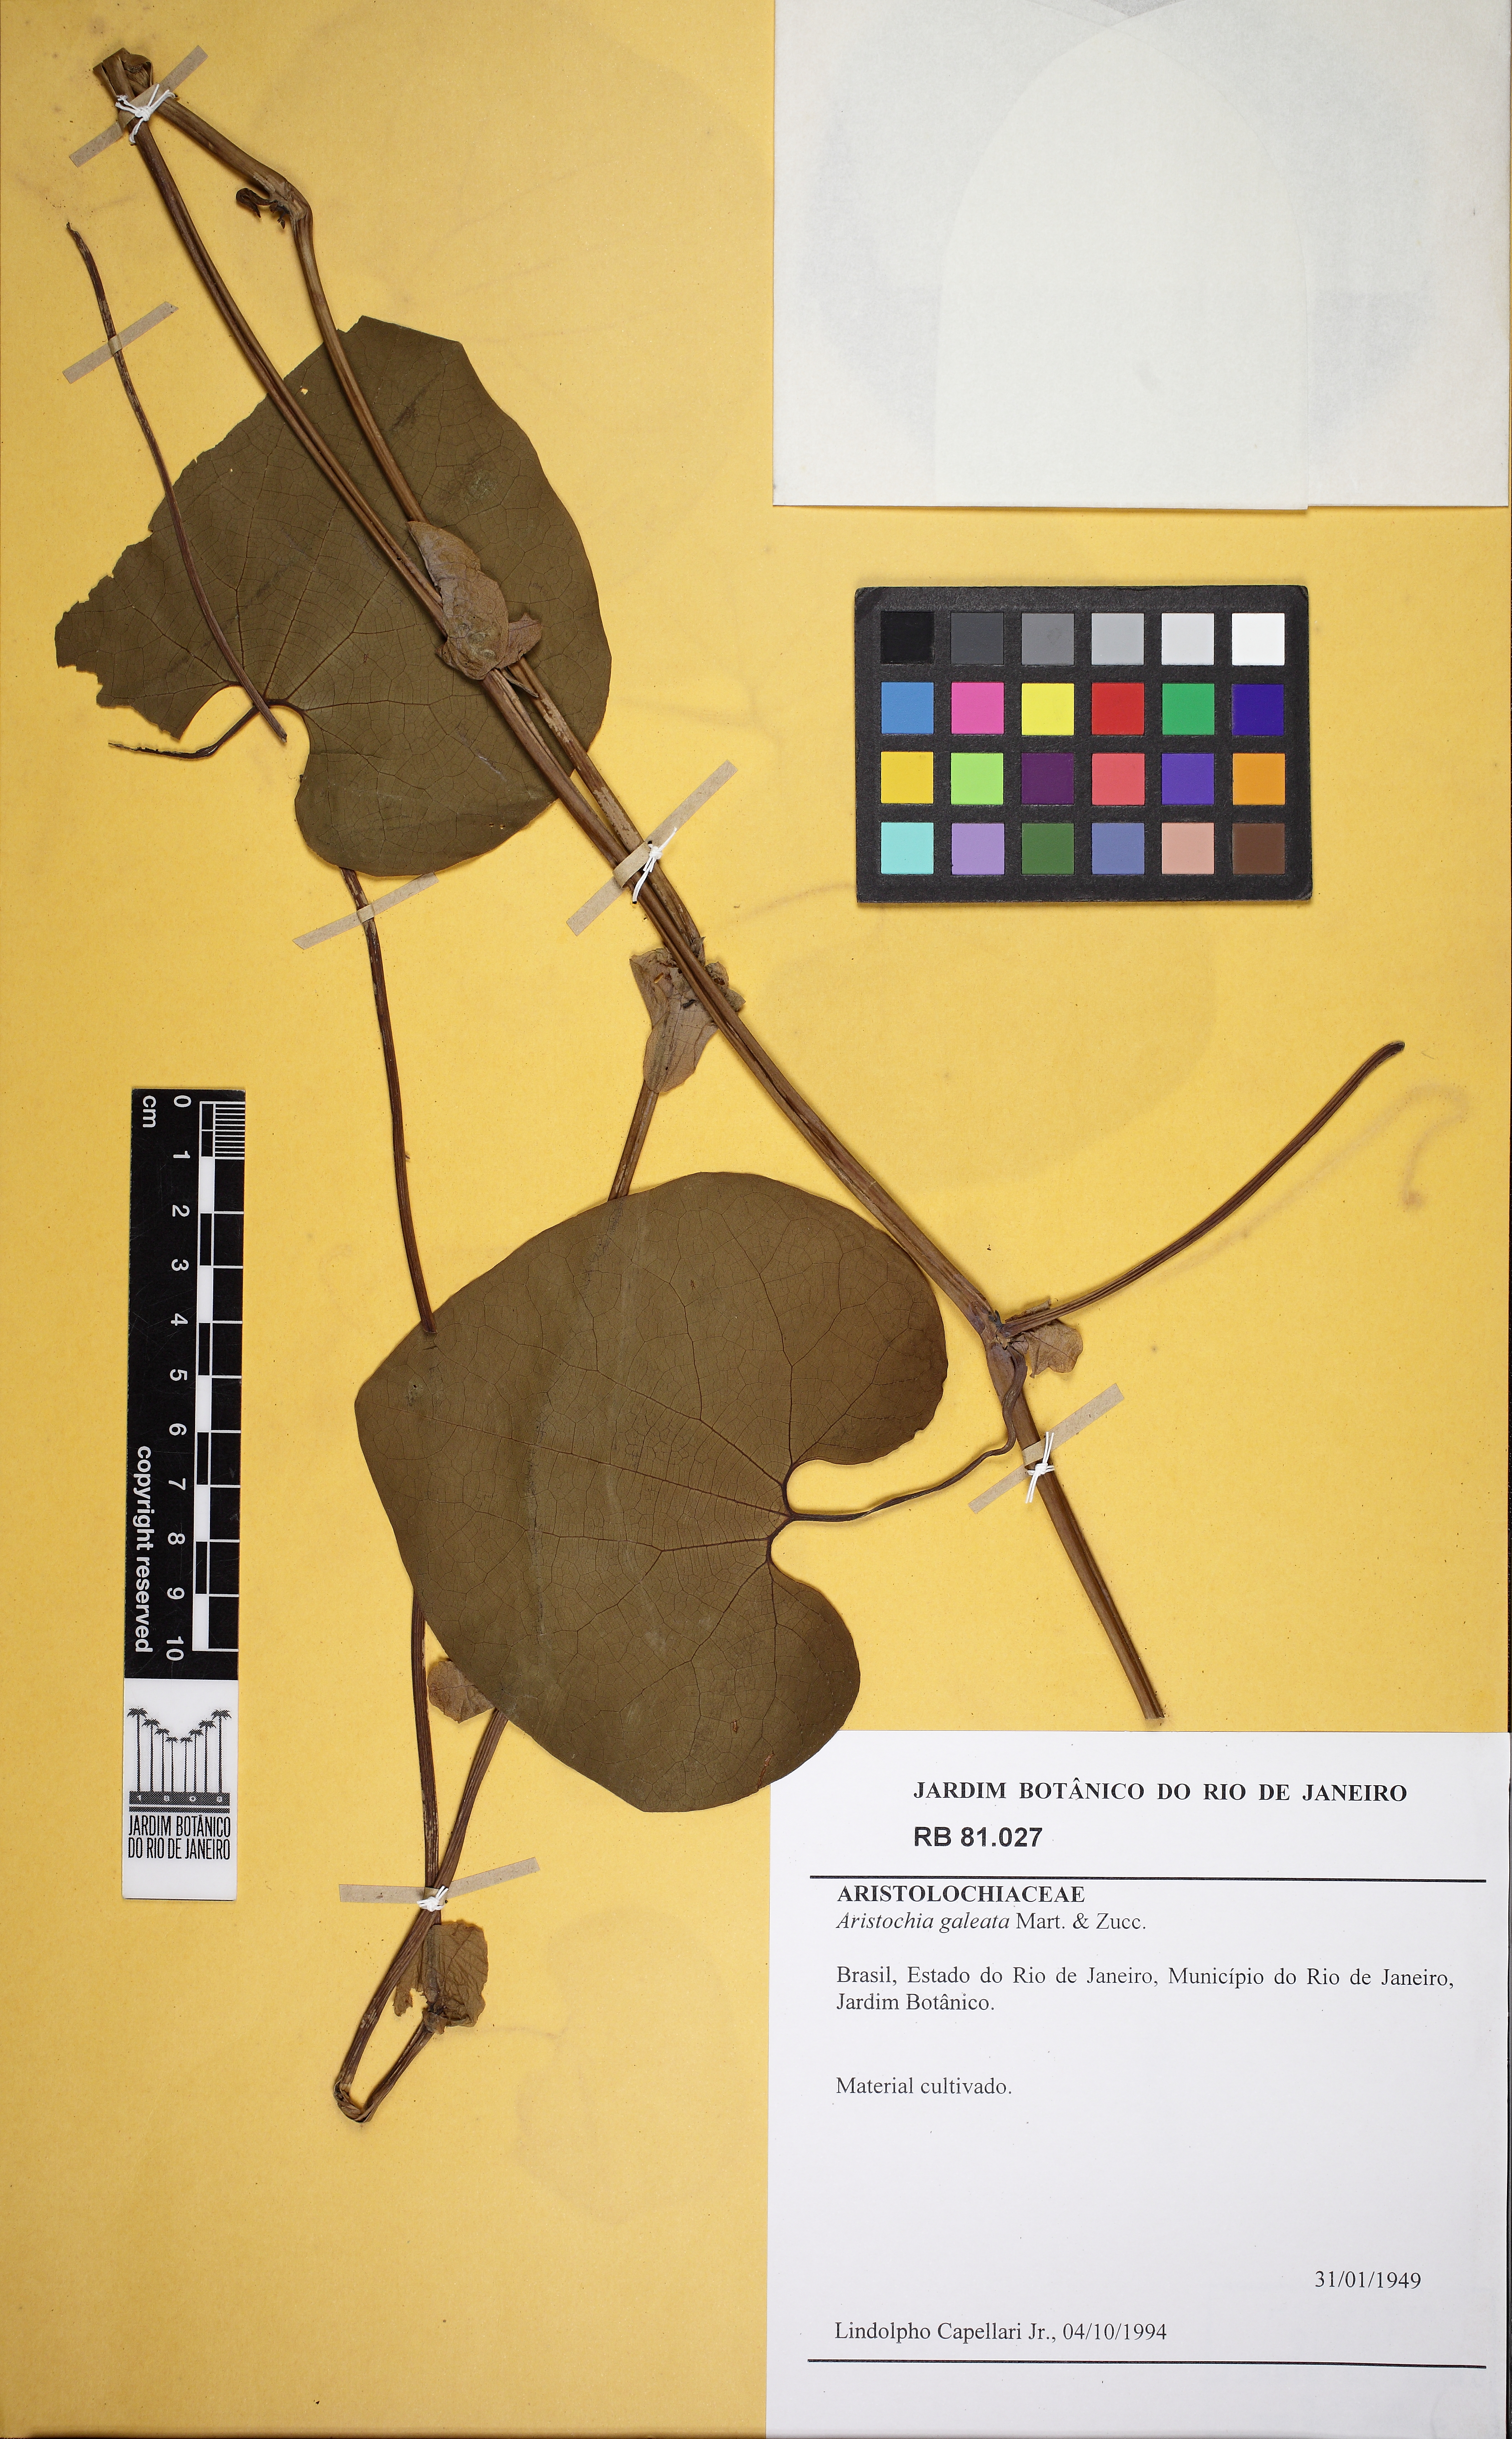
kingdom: Plantae
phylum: Tracheophyta
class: Magnoliopsida
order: Piperales
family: Aristolochiaceae
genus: Aristolochia
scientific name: Aristolochia labiata
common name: Mottled dutchman's pipe
